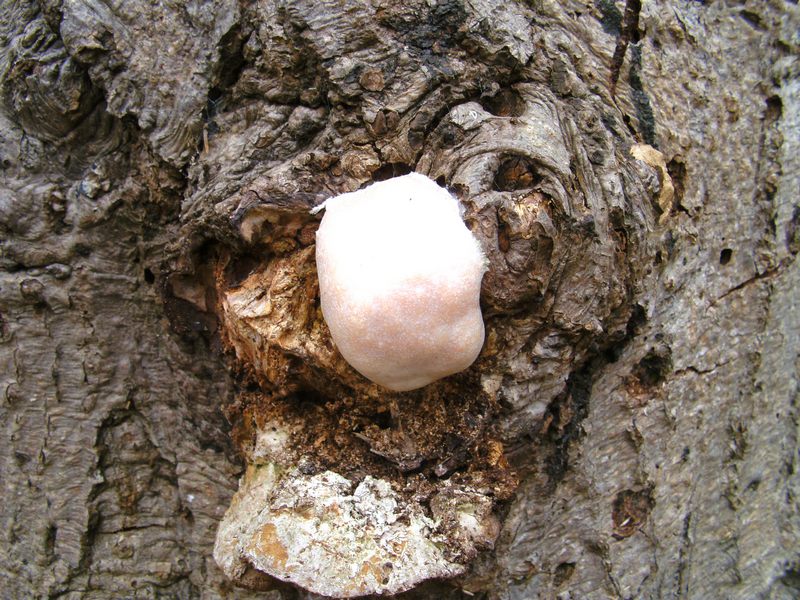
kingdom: Protozoa
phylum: Mycetozoa
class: Myxomycetes
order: Cribrariales
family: Tubiferaceae
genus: Reticularia
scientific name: Reticularia lycoperdon
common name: skinnende støvpude
